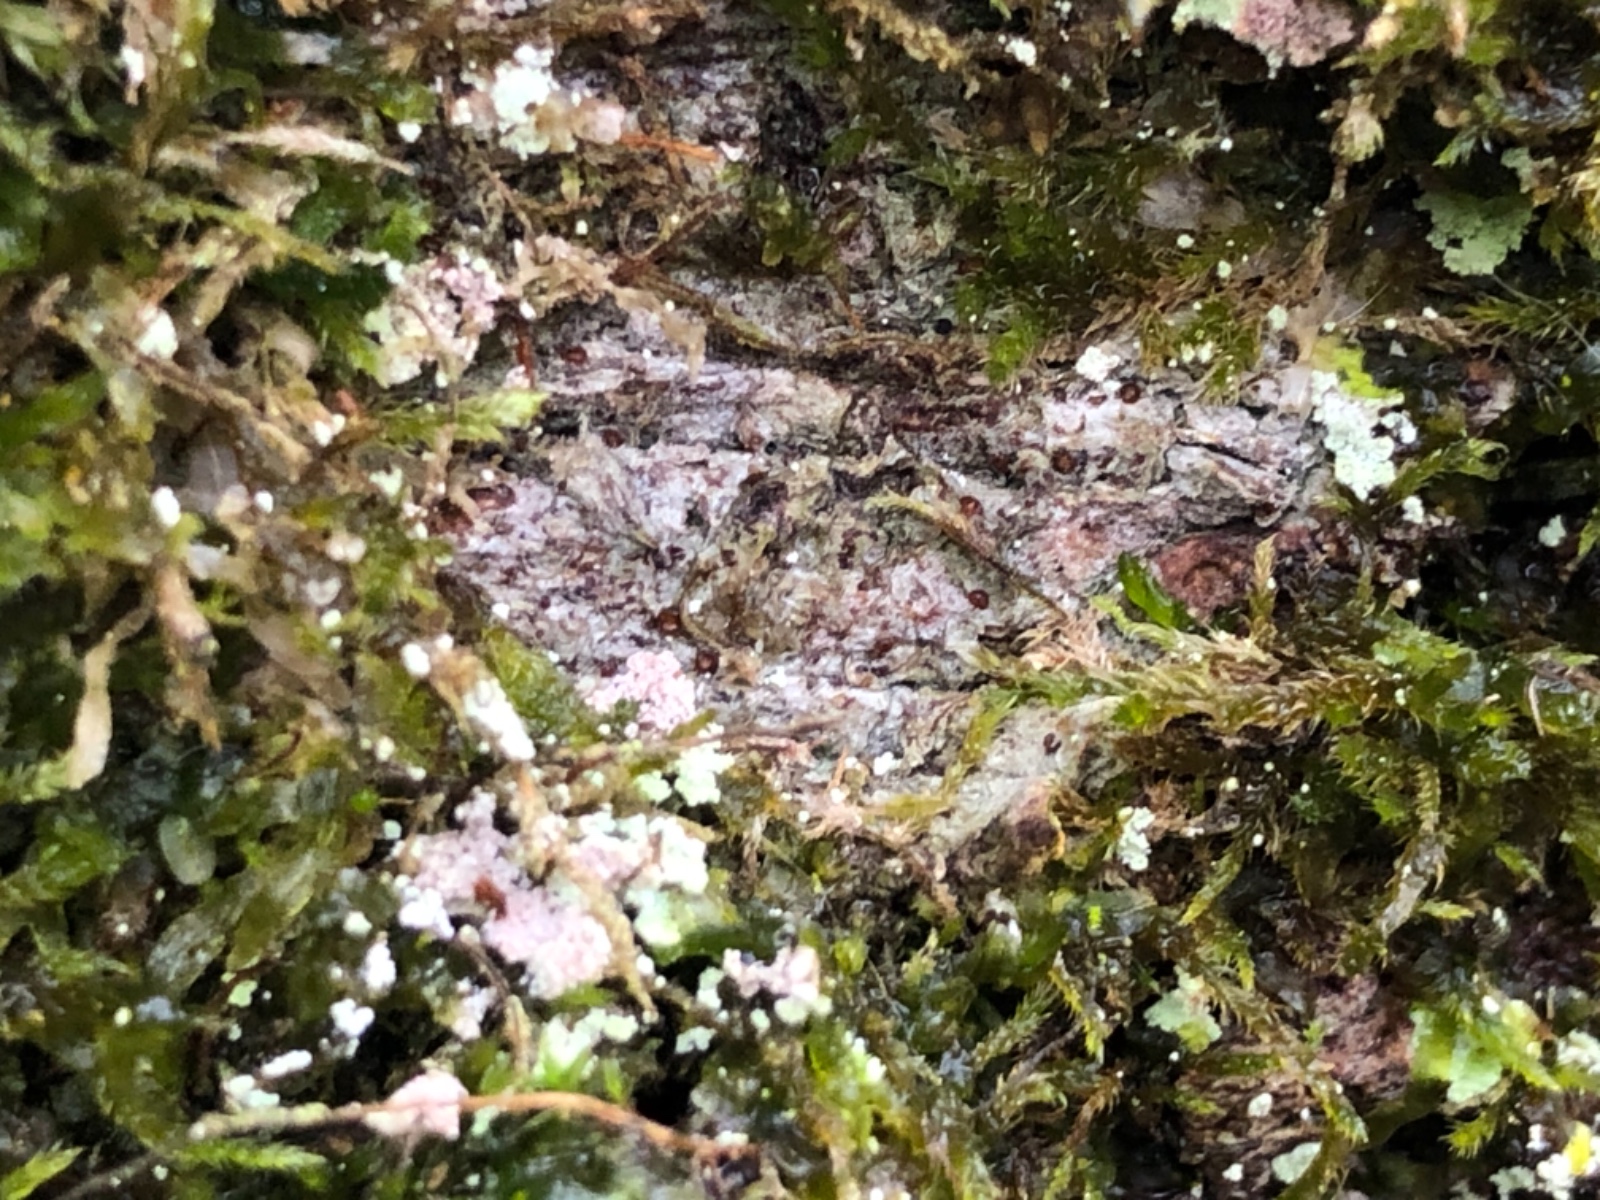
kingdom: Fungi
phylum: Ascomycota
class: Lecanoromycetes
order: Gyalectales
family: Gyalectaceae
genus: Pachyphiale
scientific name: Pachyphiale carneola
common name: rødbrun gammelskovslav
